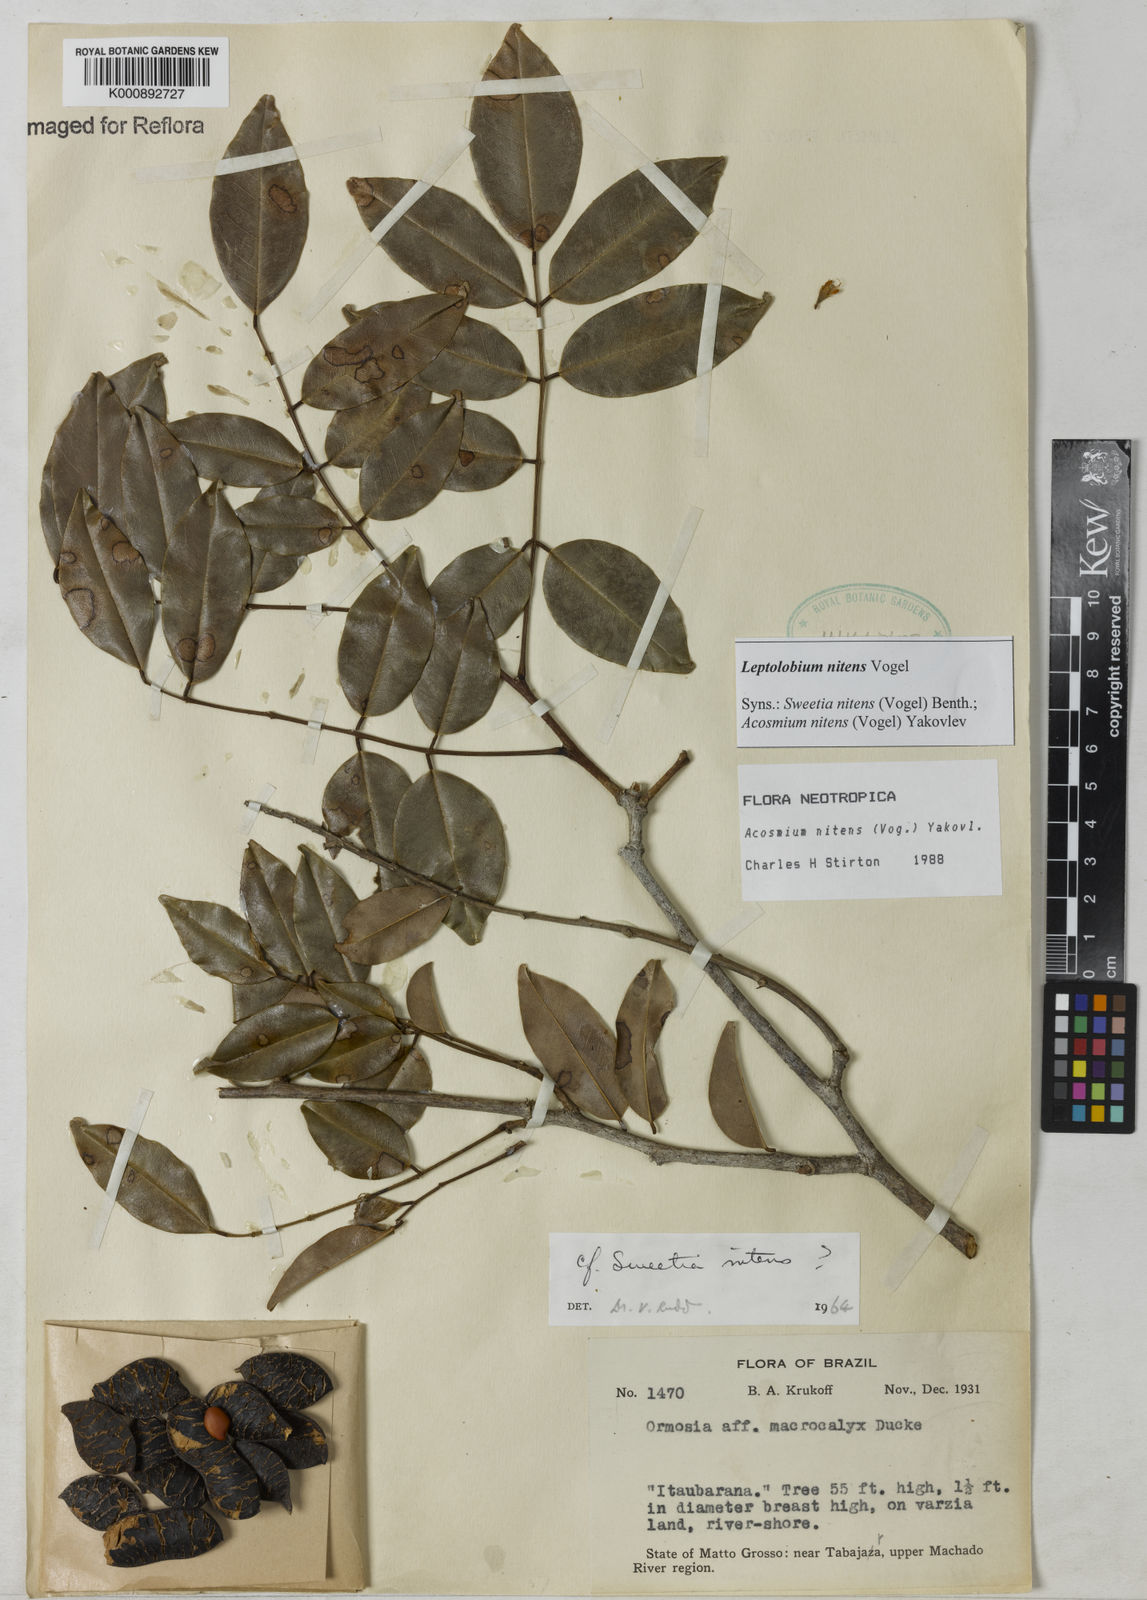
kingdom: Plantae
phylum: Tracheophyta
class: Magnoliopsida
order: Fabales
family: Fabaceae
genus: Leptolobium
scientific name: Leptolobium nitens
